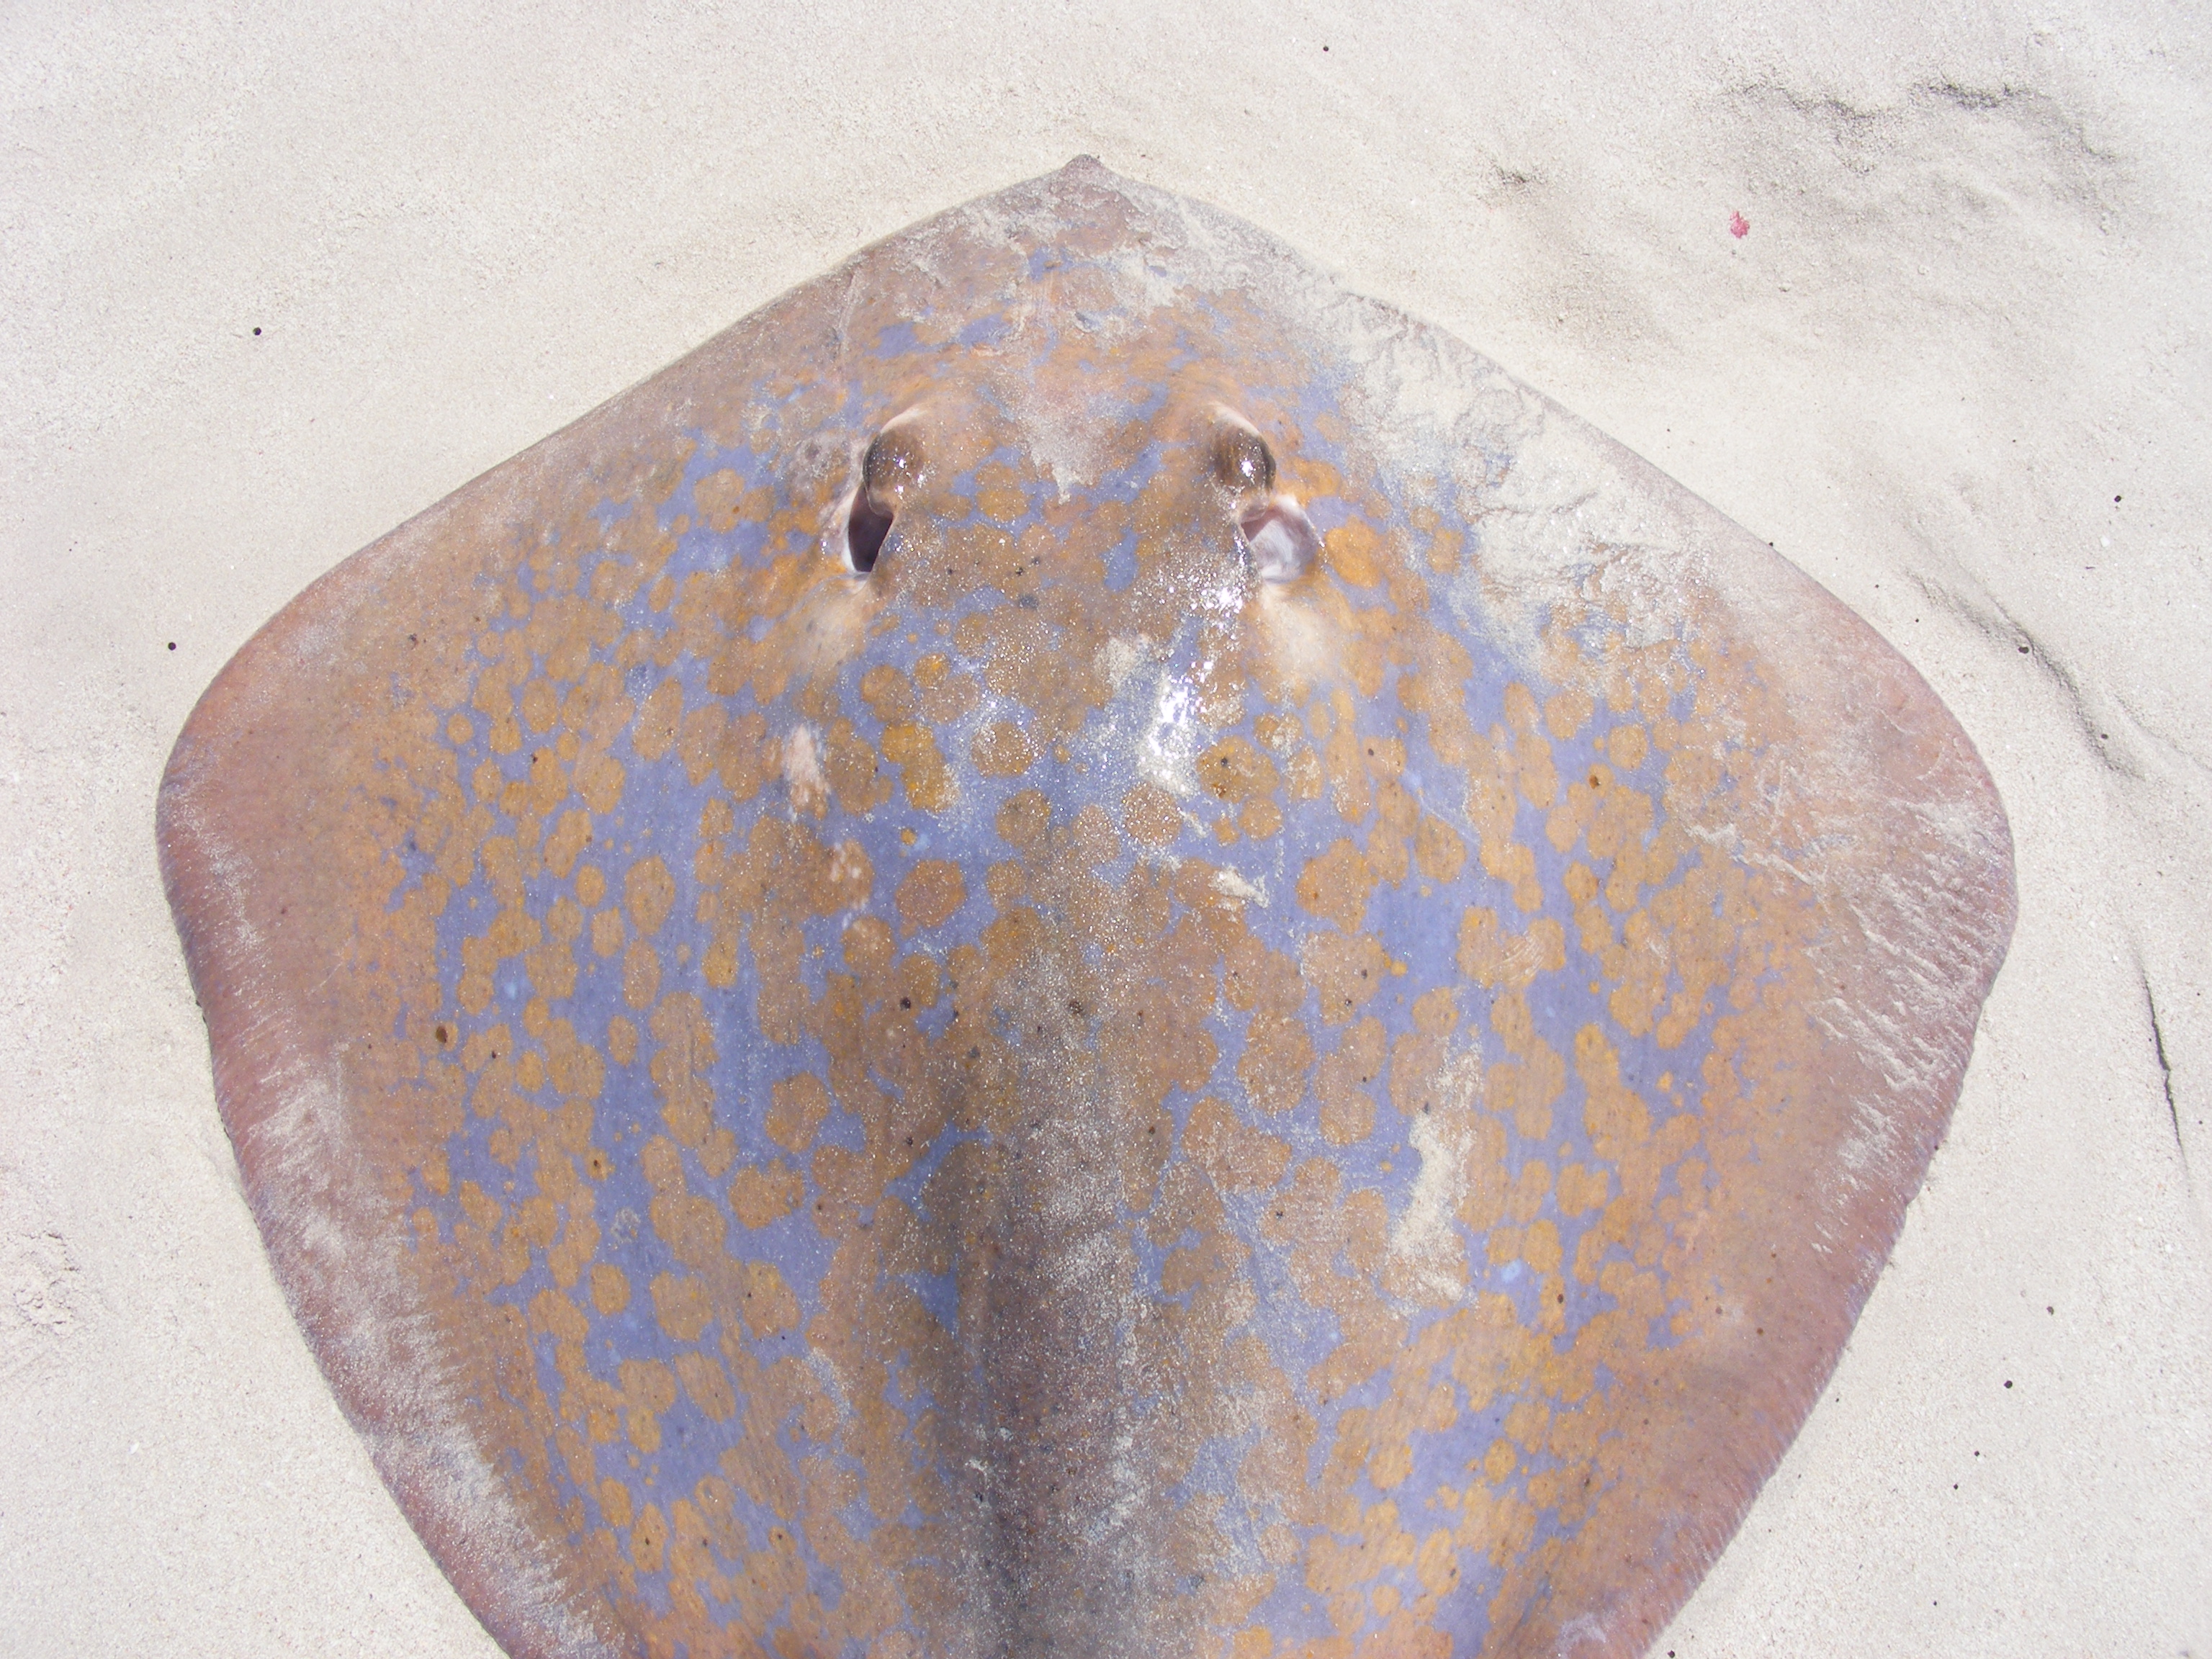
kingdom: Animalia
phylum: Chordata
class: Elasmobranchii
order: Myliobatiformes
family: Dasyatidae
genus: Dasyatis
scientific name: Dasyatis pastinaca
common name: Common stingray
